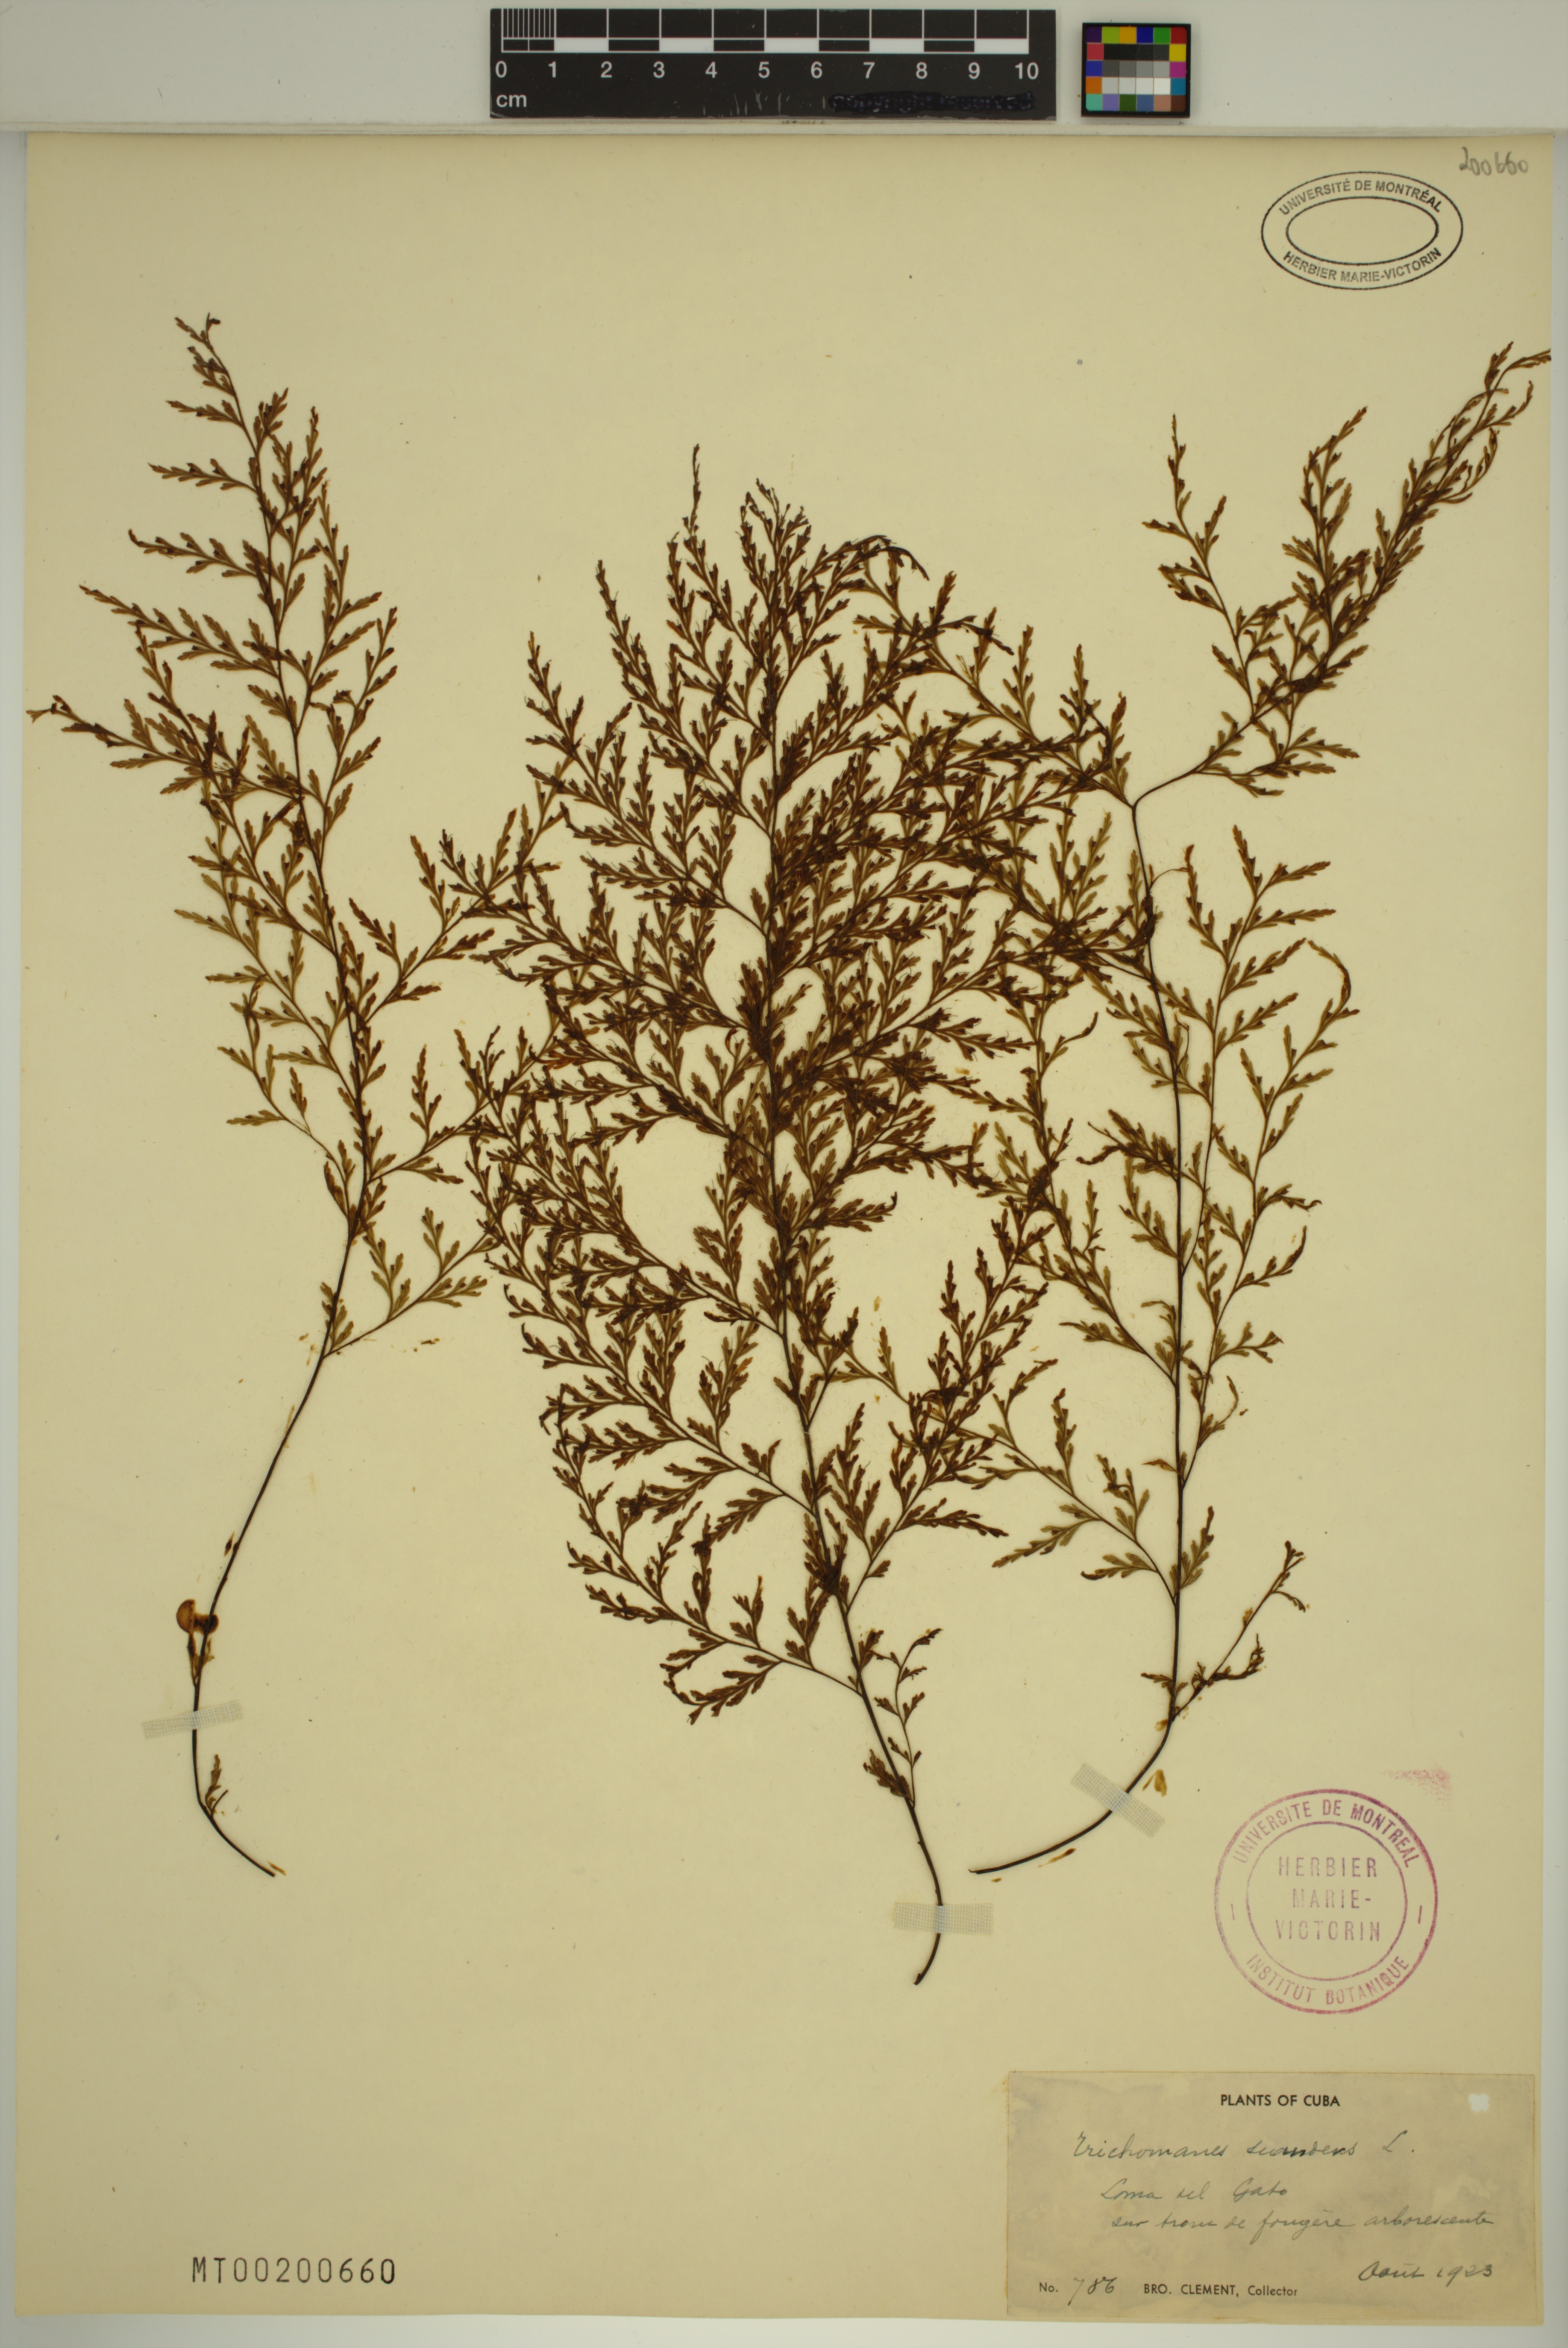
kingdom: Plantae
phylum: Tracheophyta
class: Polypodiopsida
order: Hymenophyllales
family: Hymenophyllaceae
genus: Trichomanes
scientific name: Trichomanes scandens
